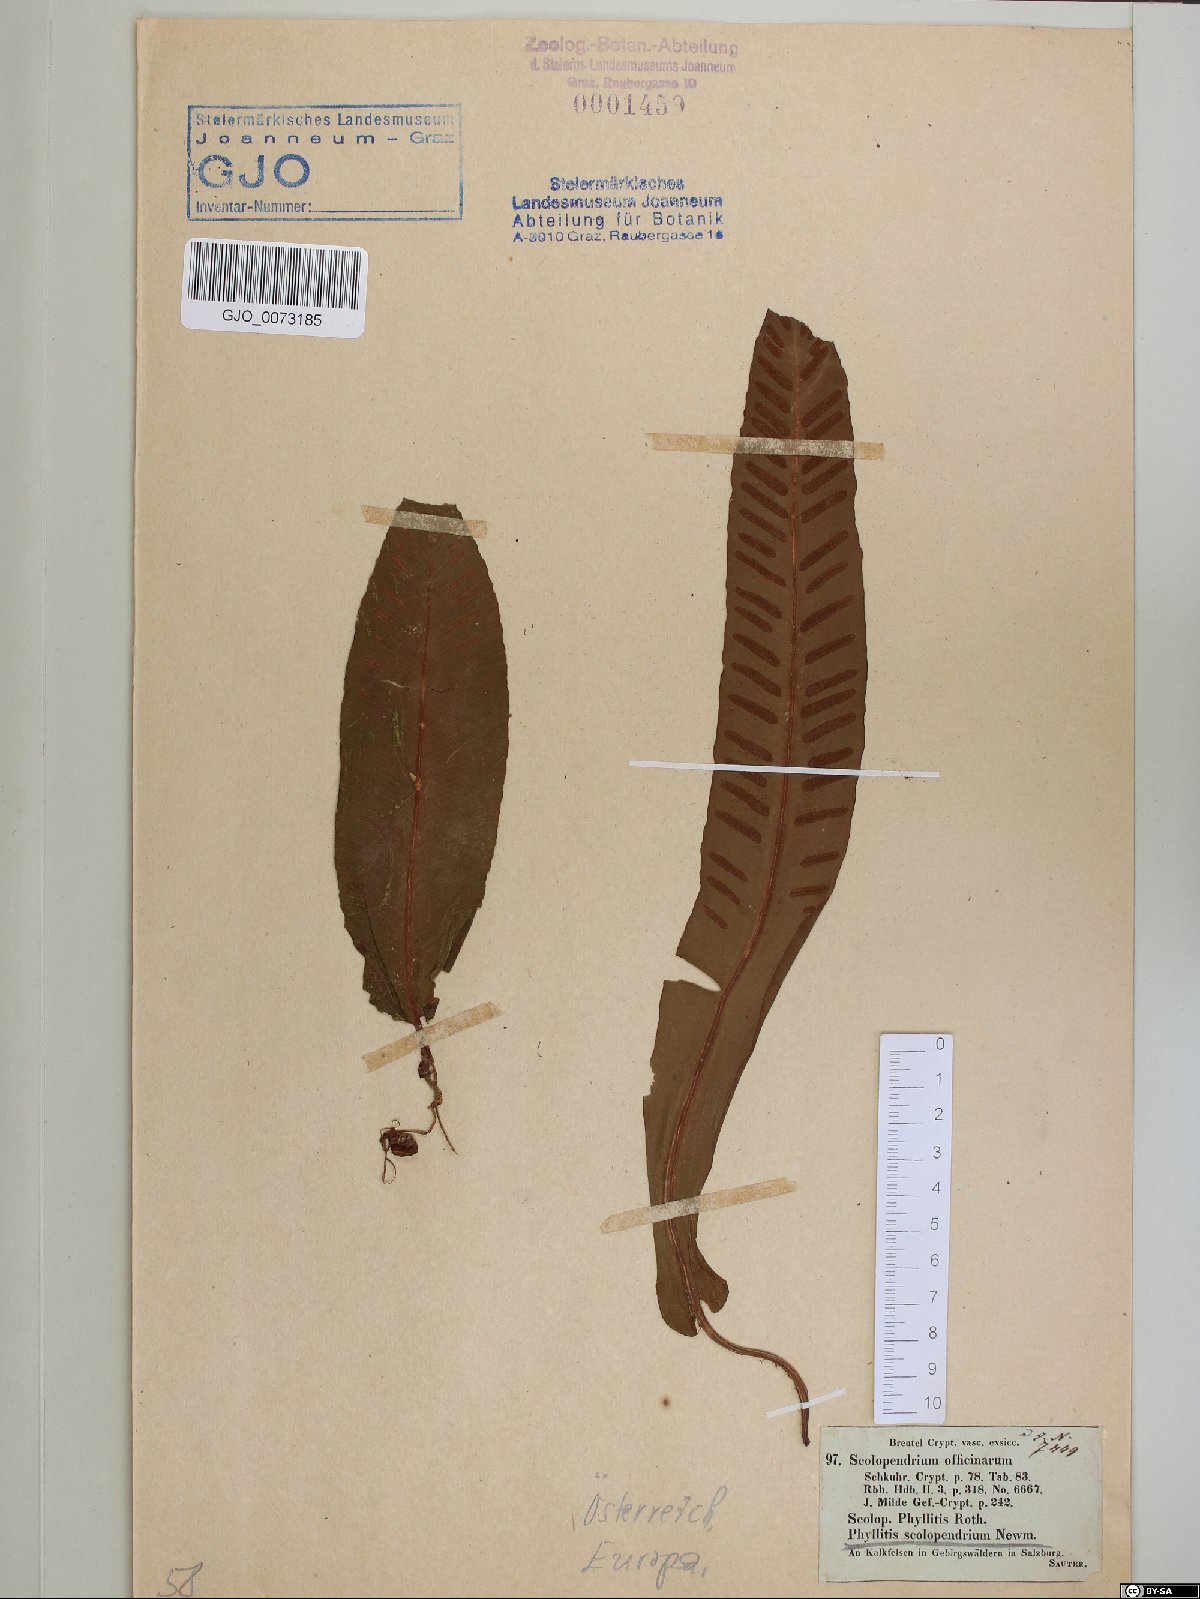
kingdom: Plantae
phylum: Tracheophyta
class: Polypodiopsida
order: Polypodiales
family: Aspleniaceae
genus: Asplenium
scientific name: Asplenium scolopendrium
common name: Hart's-tongue fern
